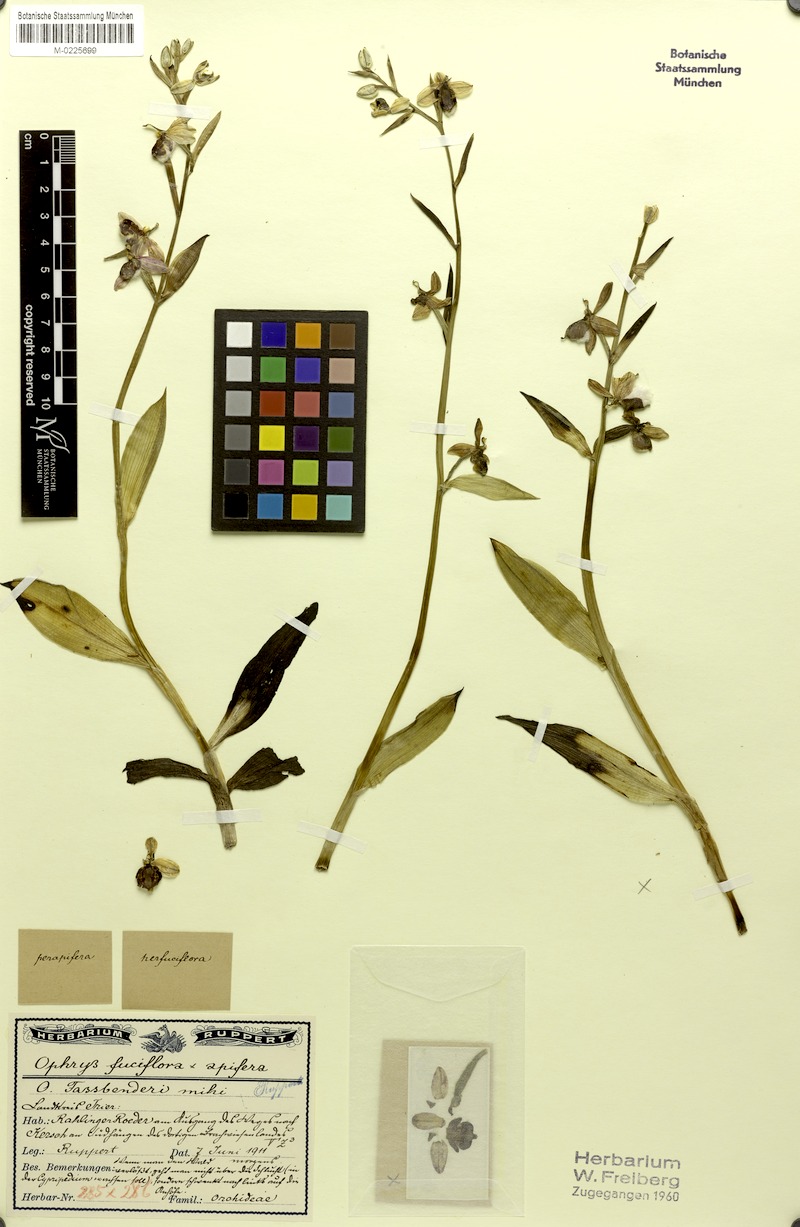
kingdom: Plantae
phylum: Tracheophyta
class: Liliopsida
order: Asparagales
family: Orchidaceae
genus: Ophrys
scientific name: Ophrys albertiana
